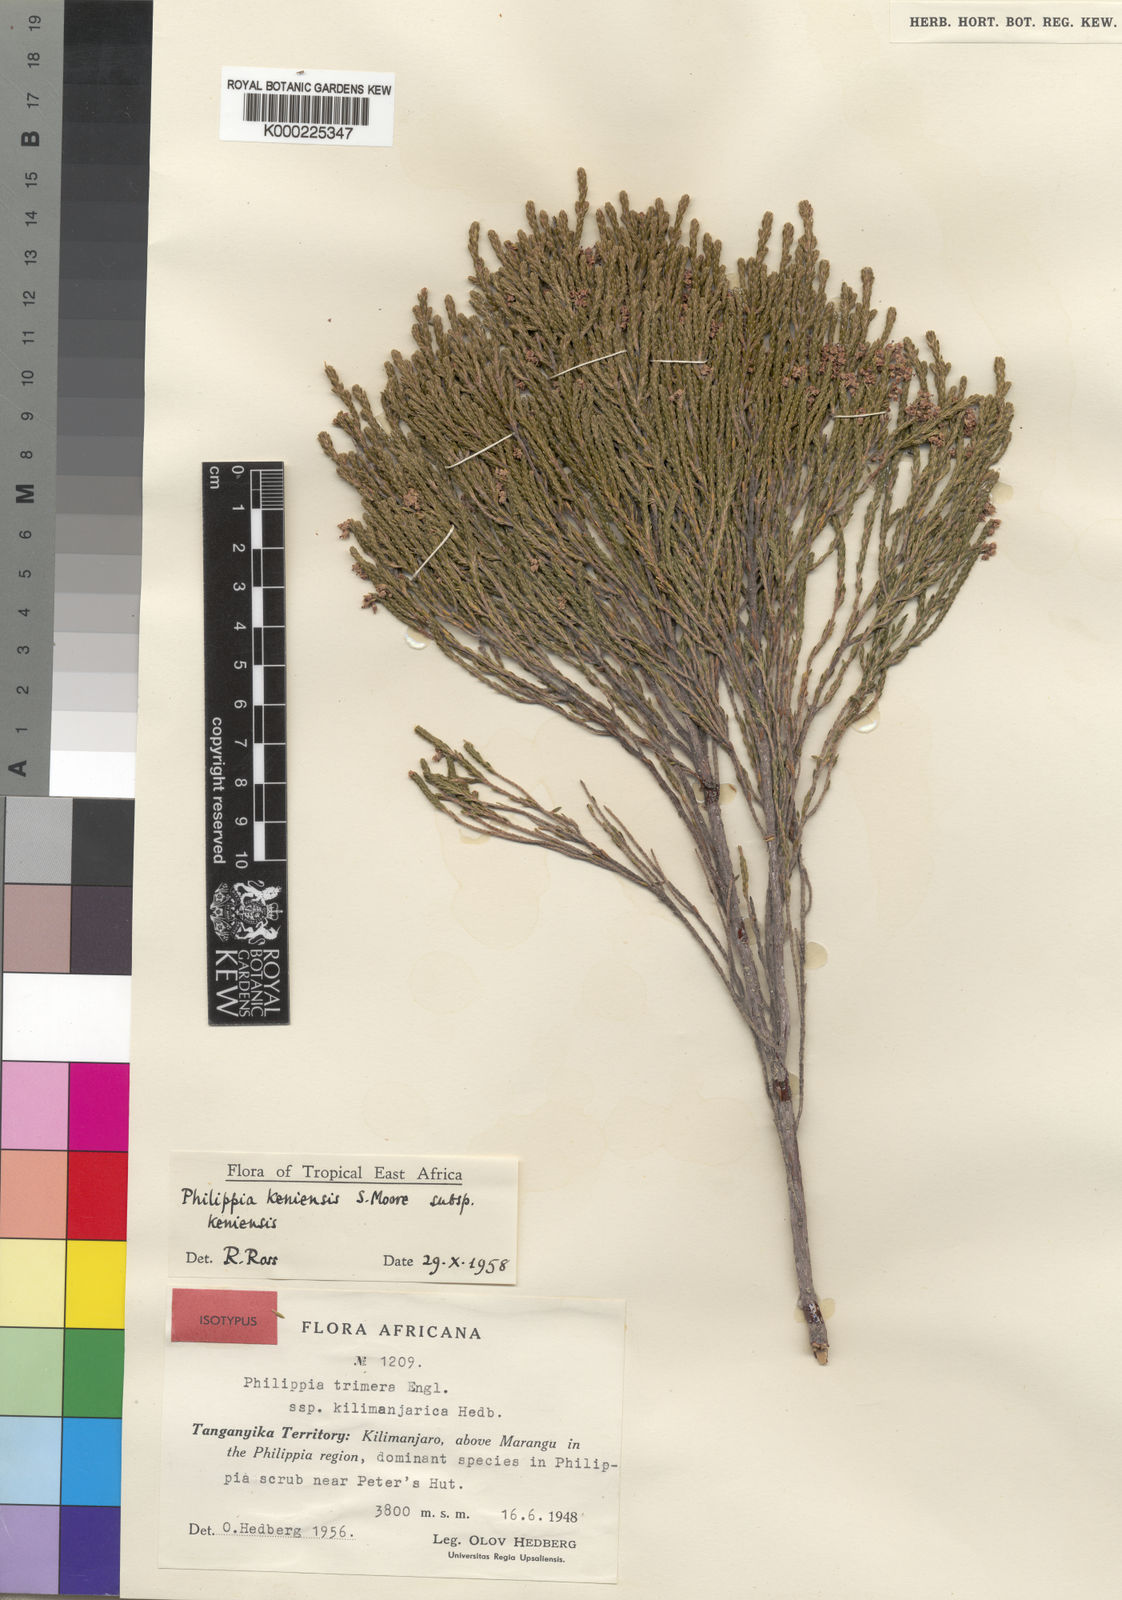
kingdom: Plantae
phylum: Tracheophyta
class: Magnoliopsida
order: Ericales
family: Ericaceae
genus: Erica
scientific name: Erica trimera
